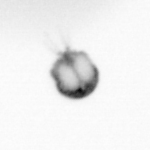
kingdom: Animalia
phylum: Arthropoda
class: Copepoda
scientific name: Copepoda
